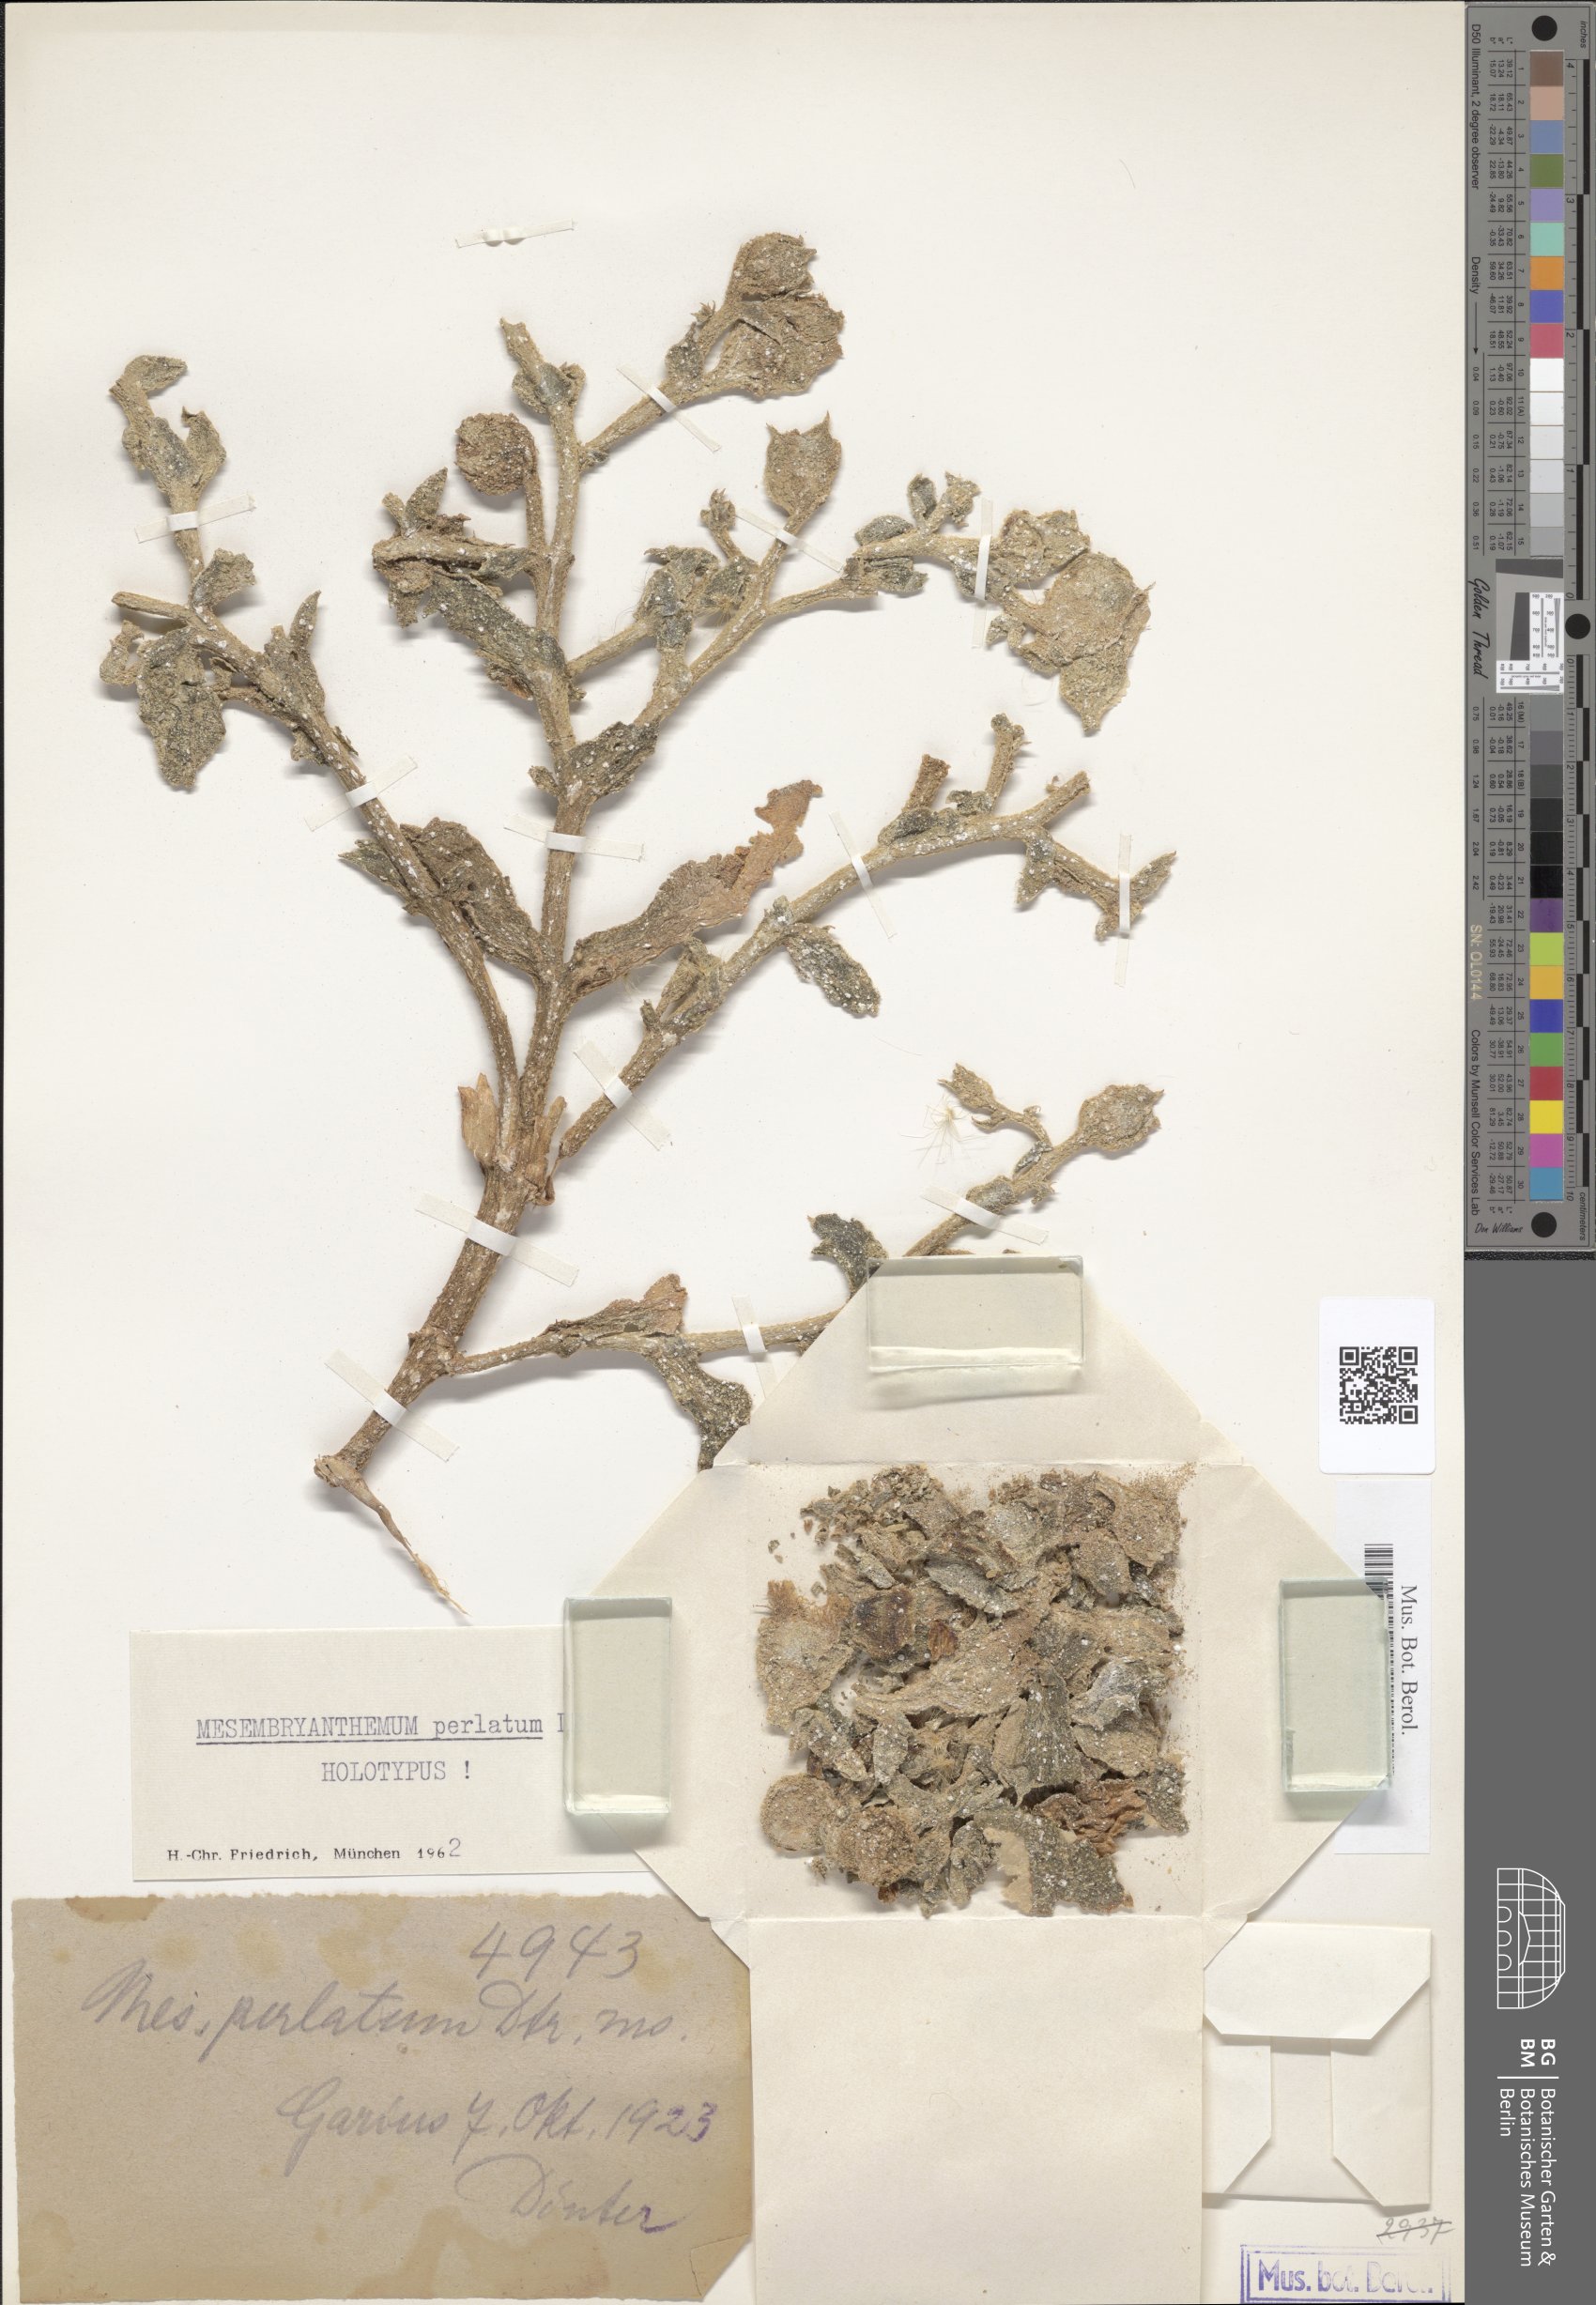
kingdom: Plantae
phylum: Tracheophyta
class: Magnoliopsida
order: Caryophyllales
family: Aizoaceae
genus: Mesembryanthemum
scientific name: Mesembryanthemum guerichianum
